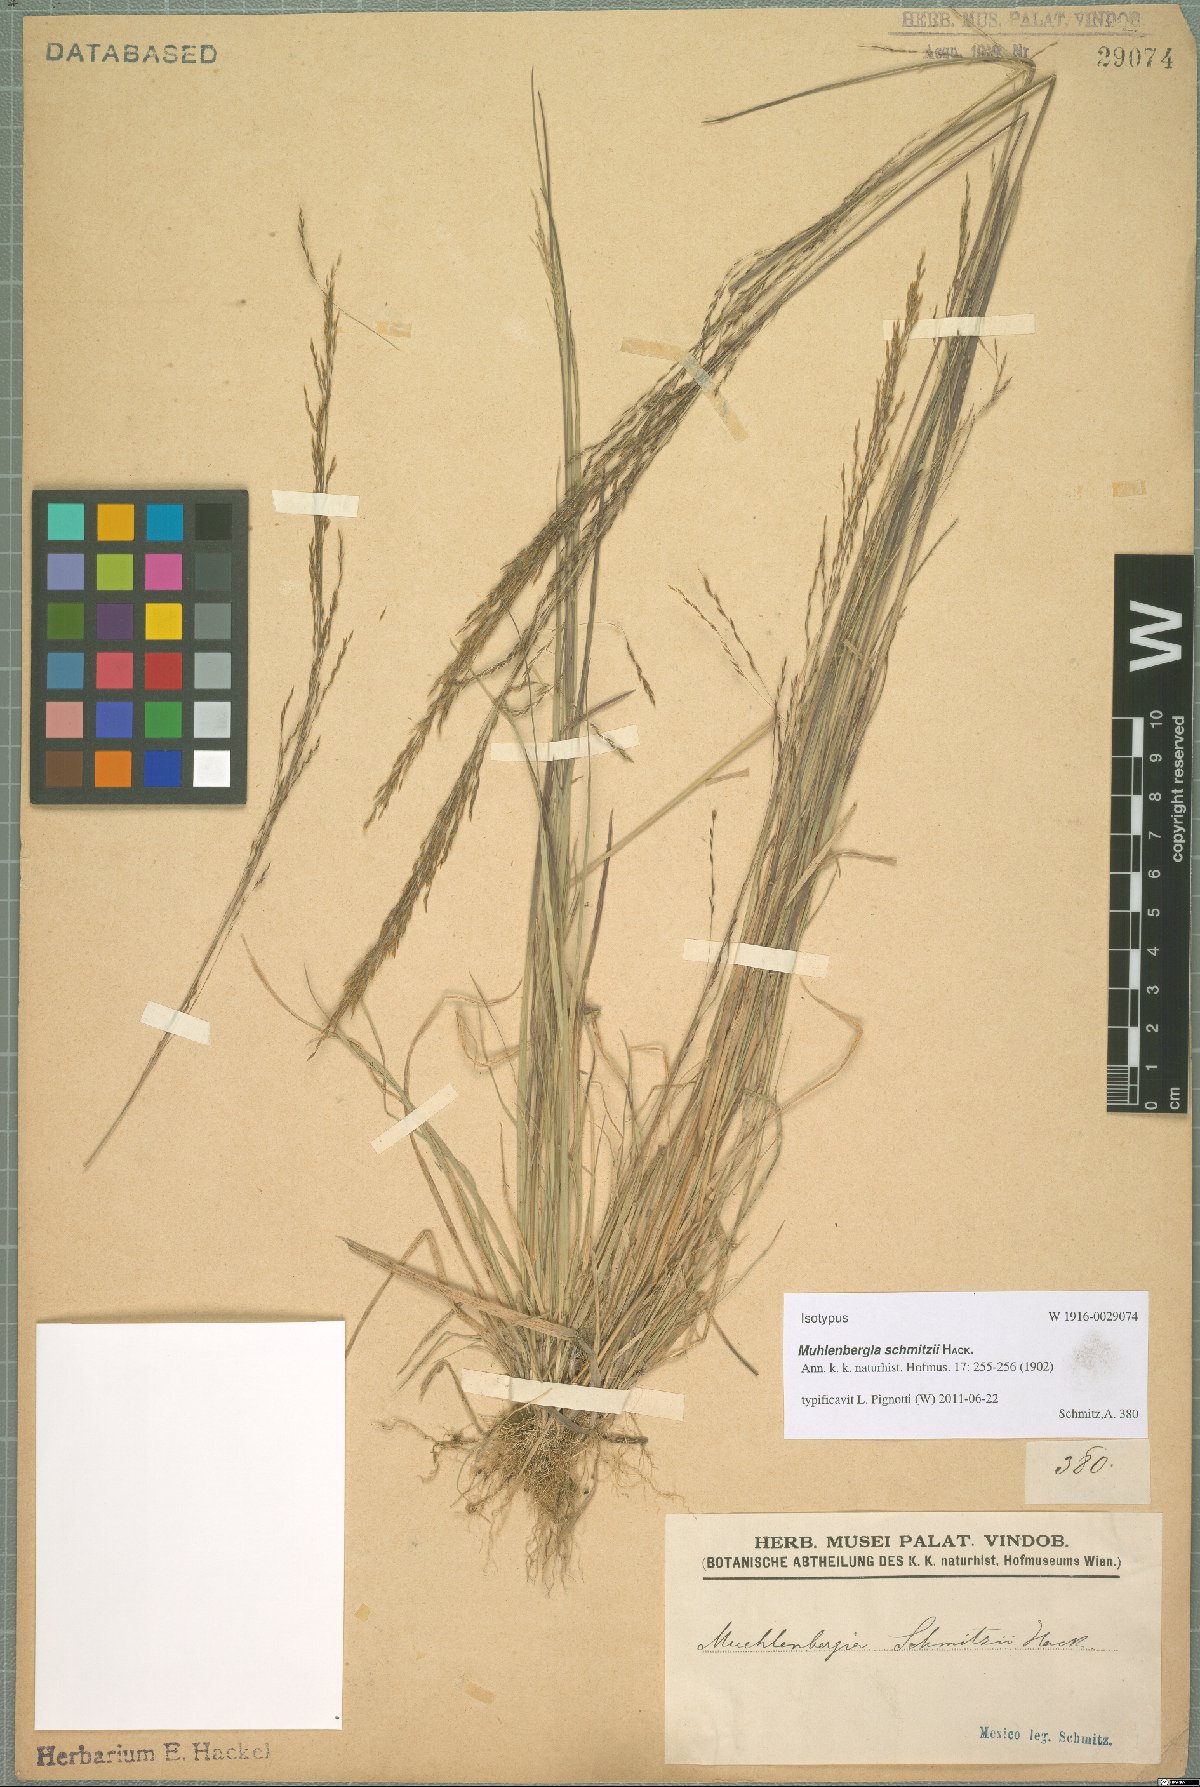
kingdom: Plantae
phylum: Tracheophyta
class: Liliopsida
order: Poales
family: Poaceae
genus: Muhlenbergia
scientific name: Muhlenbergia schmitzii
